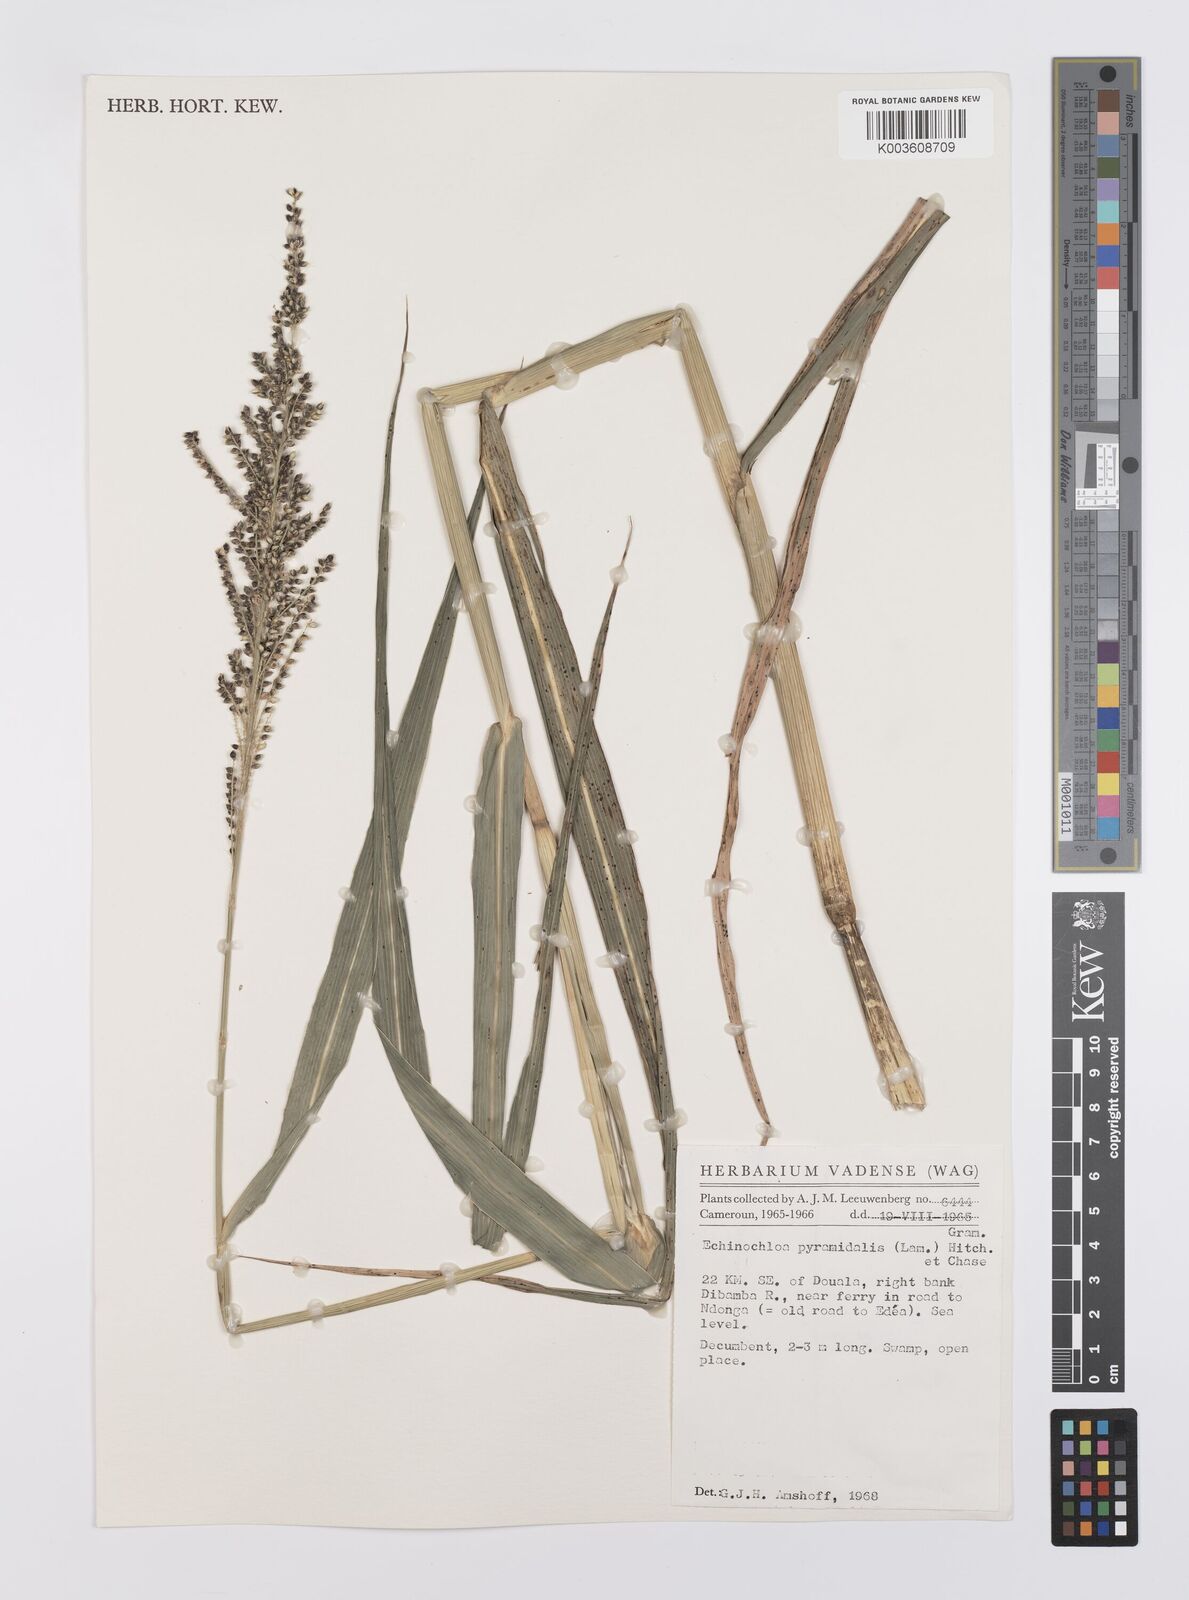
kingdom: Plantae
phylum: Tracheophyta
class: Liliopsida
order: Poales
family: Poaceae
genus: Echinochloa
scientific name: Echinochloa pyramidalis
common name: Antelope grass
